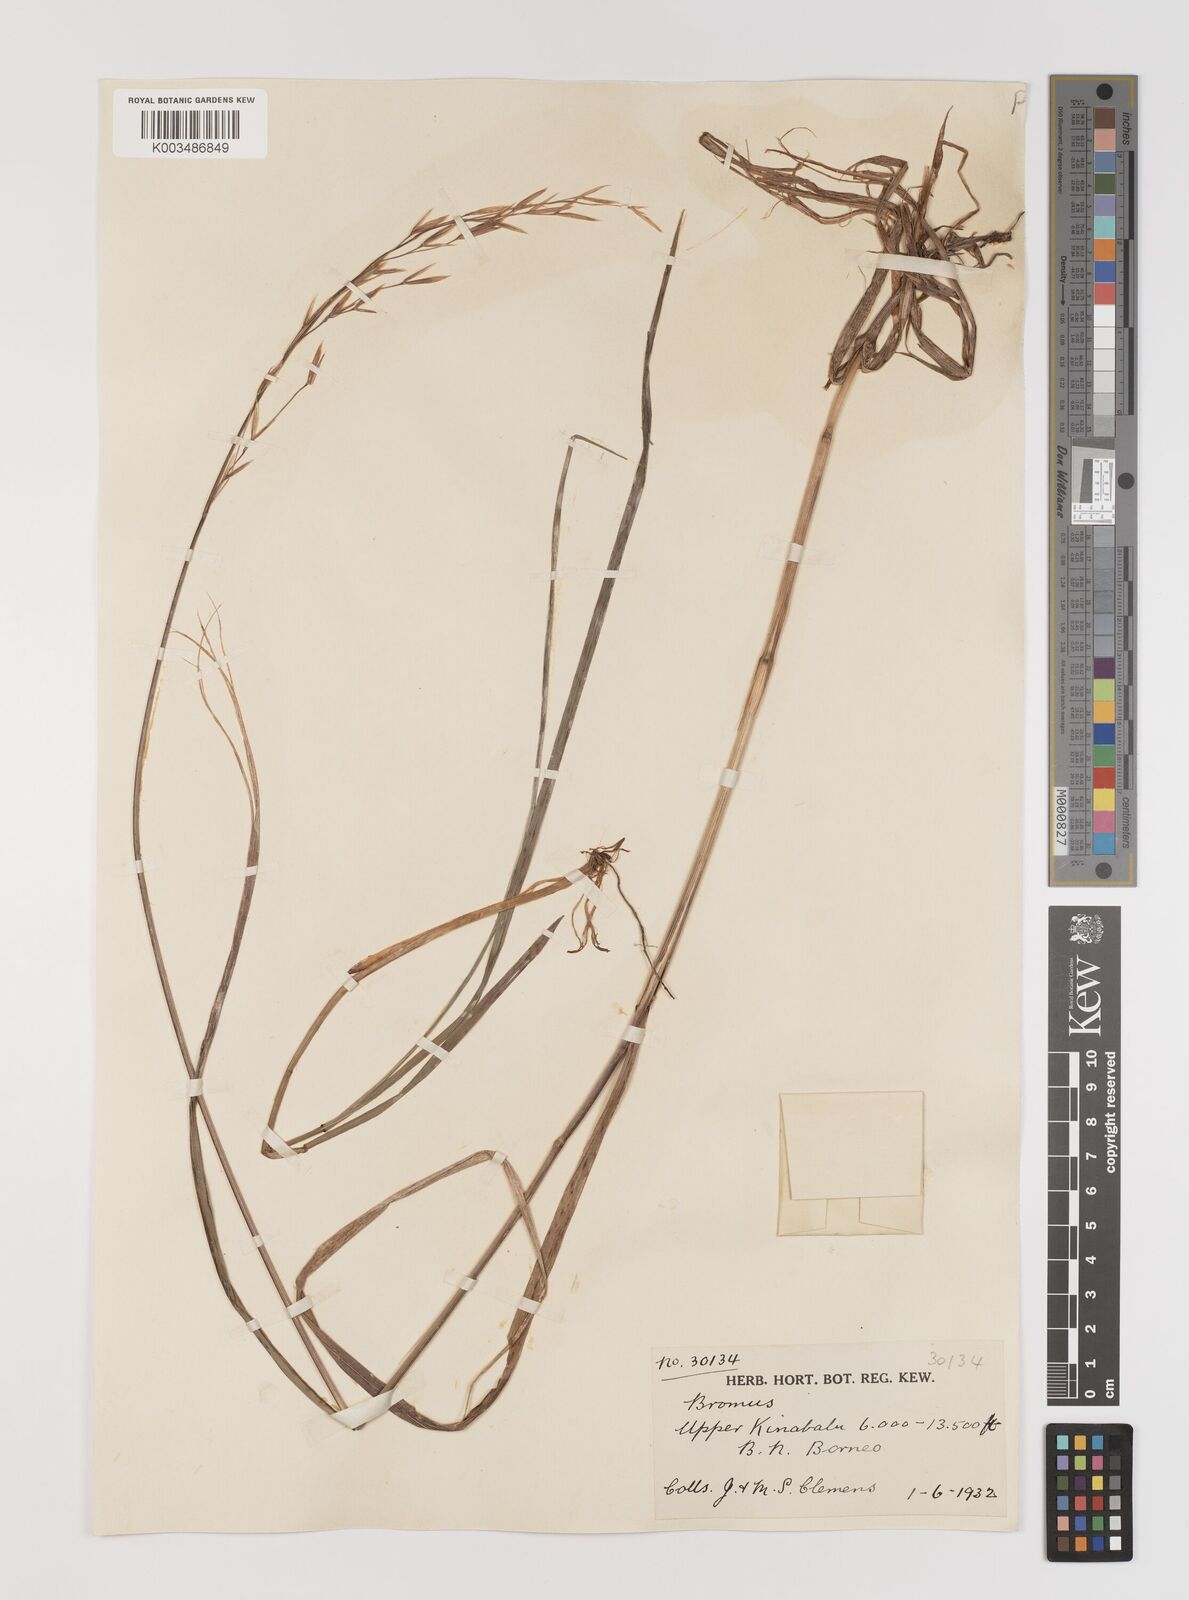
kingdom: Plantae
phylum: Tracheophyta
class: Liliopsida
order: Poales
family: Poaceae
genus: Bromus
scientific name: Bromus formosanus
